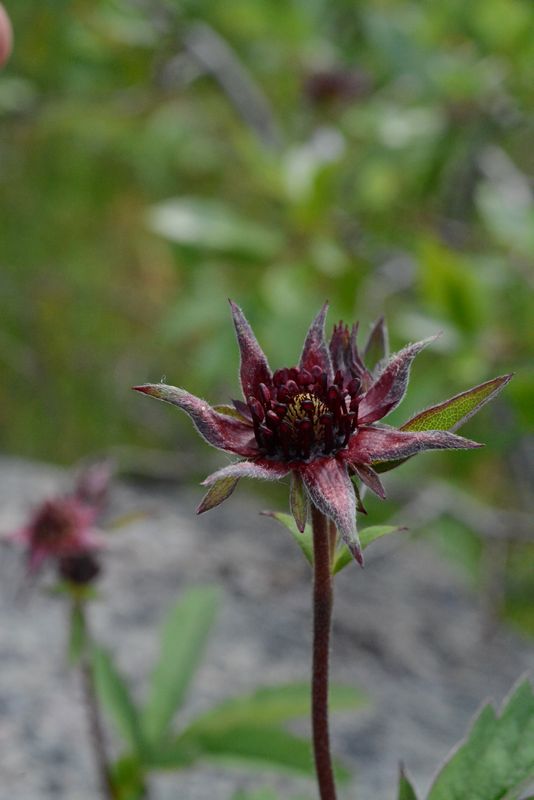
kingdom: Plantae
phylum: Tracheophyta
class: Magnoliopsida
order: Rosales
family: Rosaceae
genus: Comarum
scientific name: Comarum palustre
